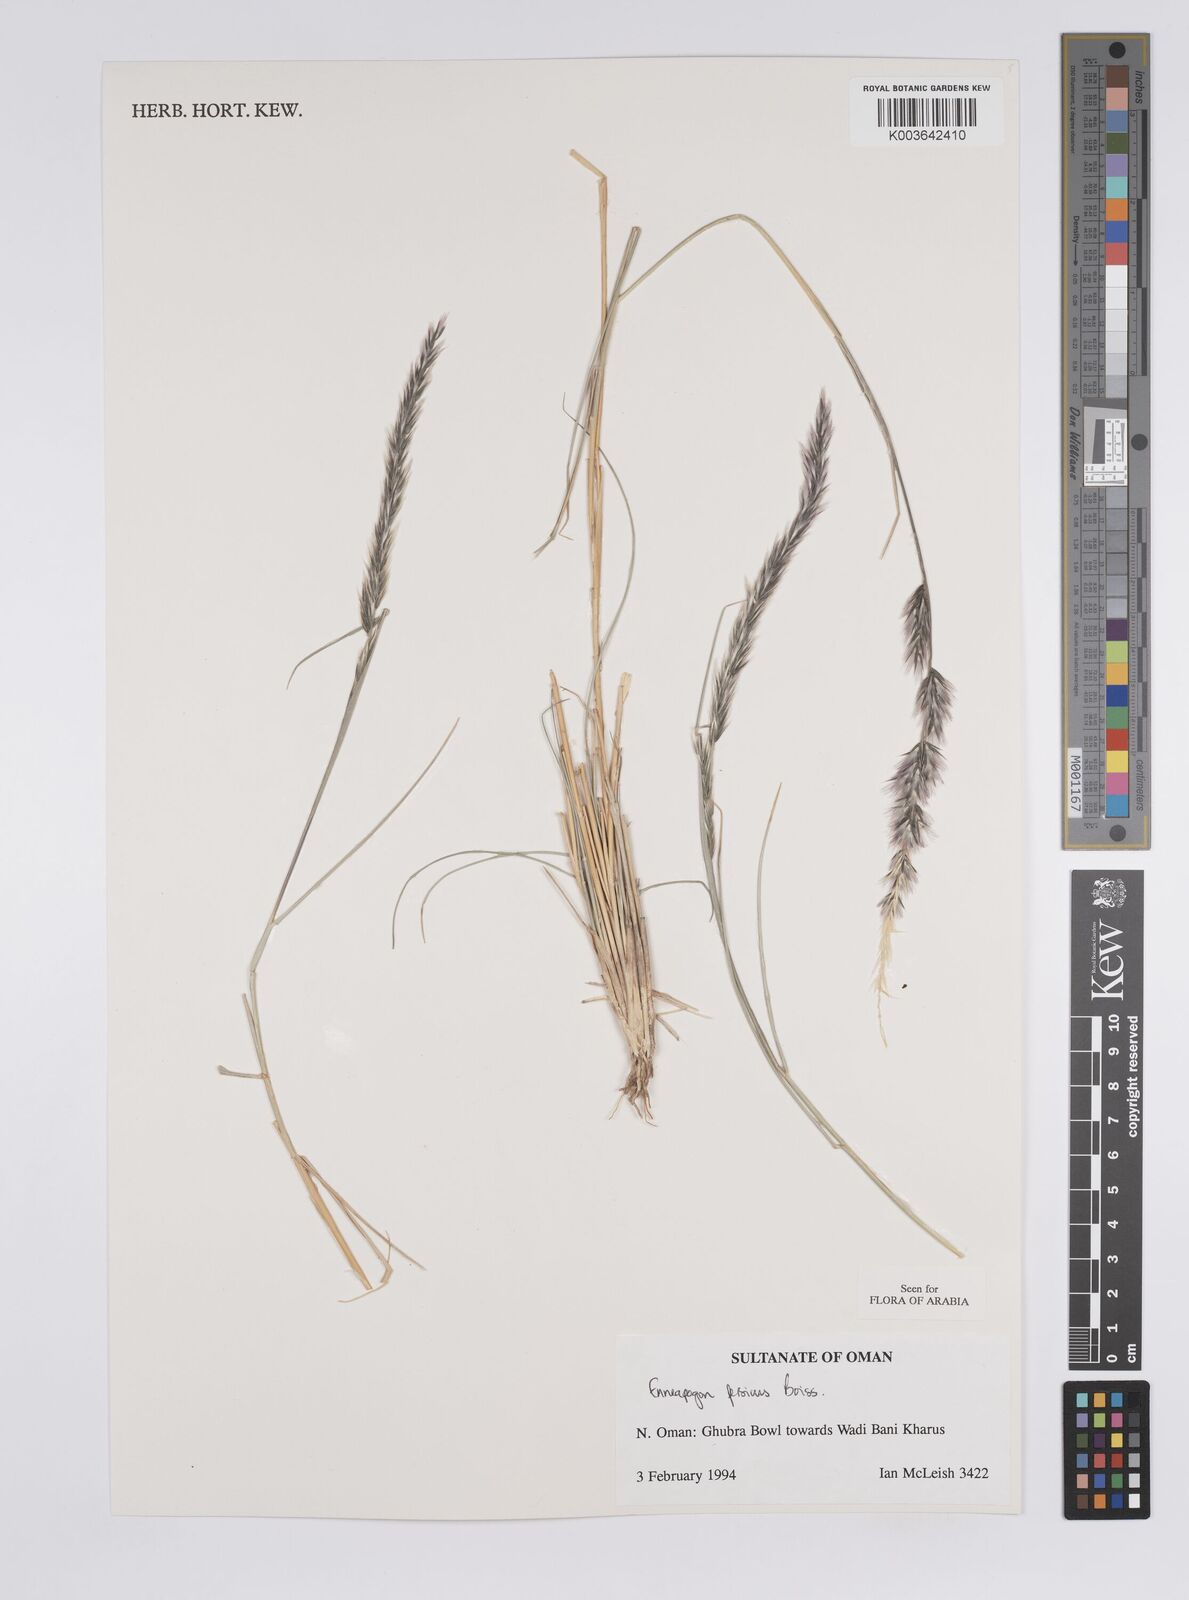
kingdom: Plantae
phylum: Tracheophyta
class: Liliopsida
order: Poales
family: Poaceae
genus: Enneapogon
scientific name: Enneapogon persicus
